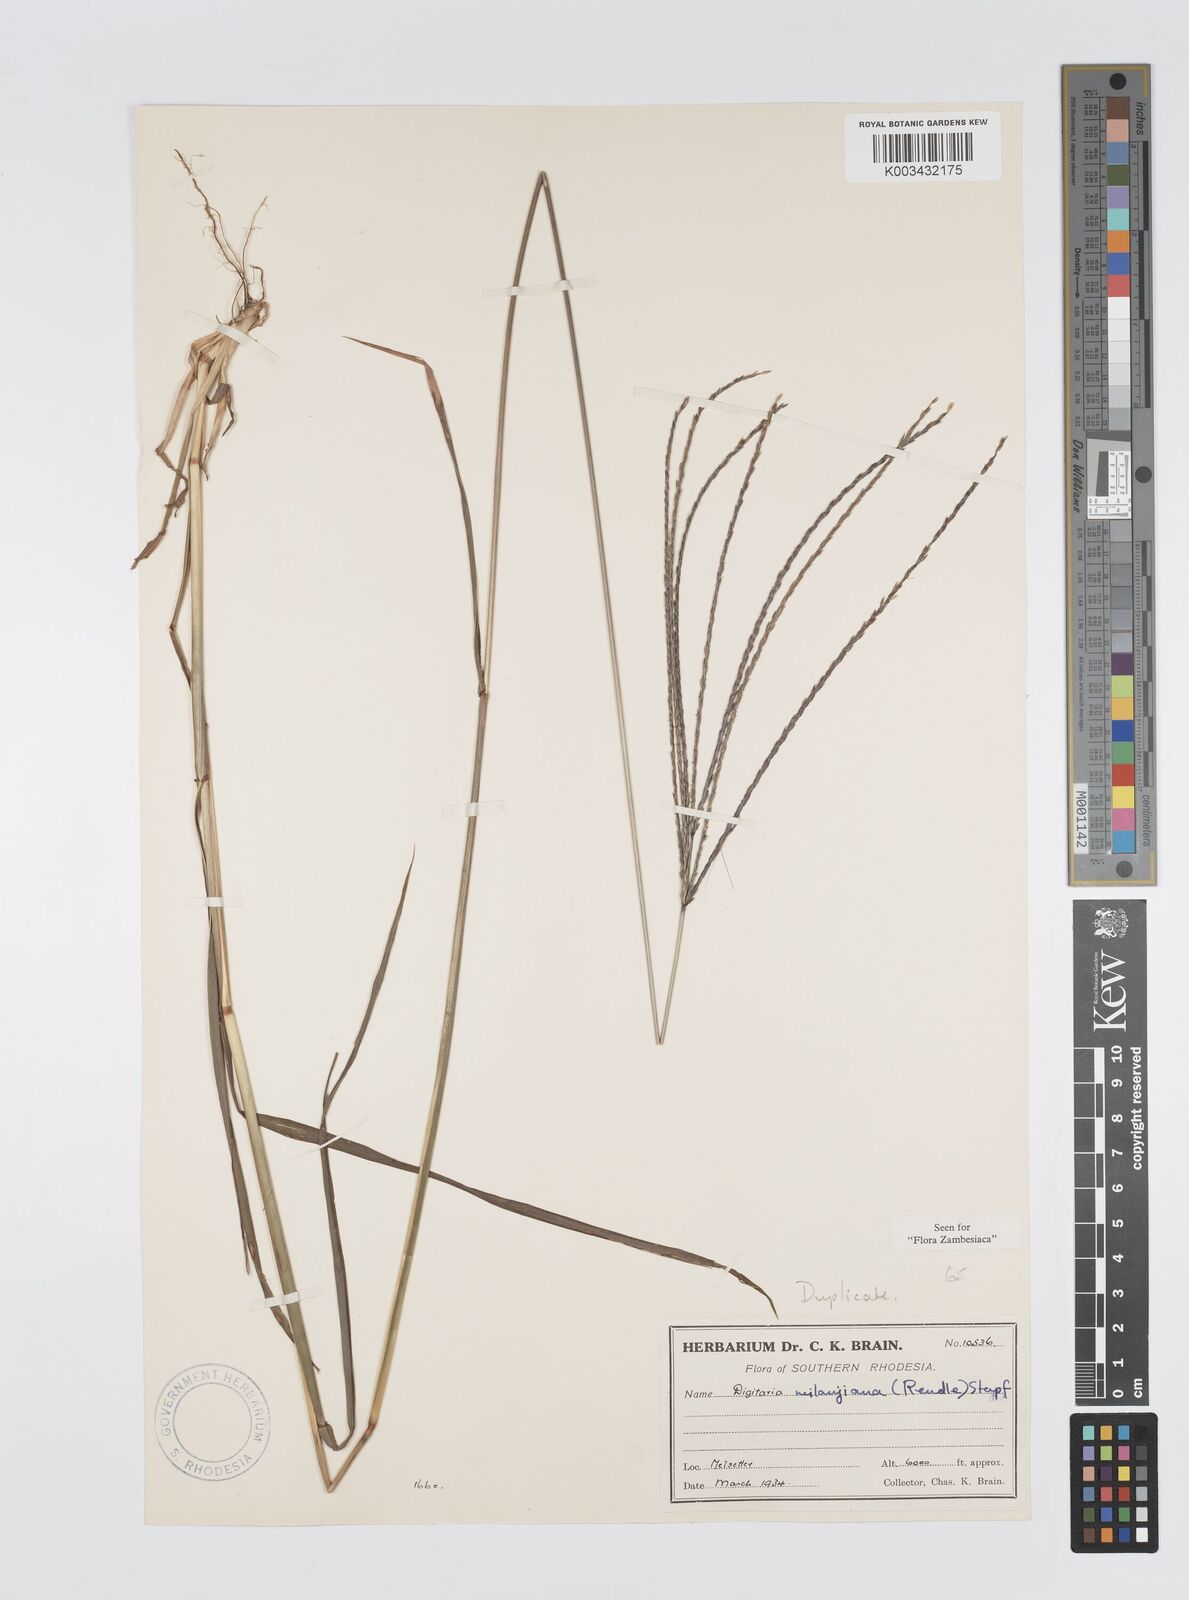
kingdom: Plantae
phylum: Tracheophyta
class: Liliopsida
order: Poales
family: Poaceae
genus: Digitaria
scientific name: Digitaria milanjiana
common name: Madagascar crabgrass
